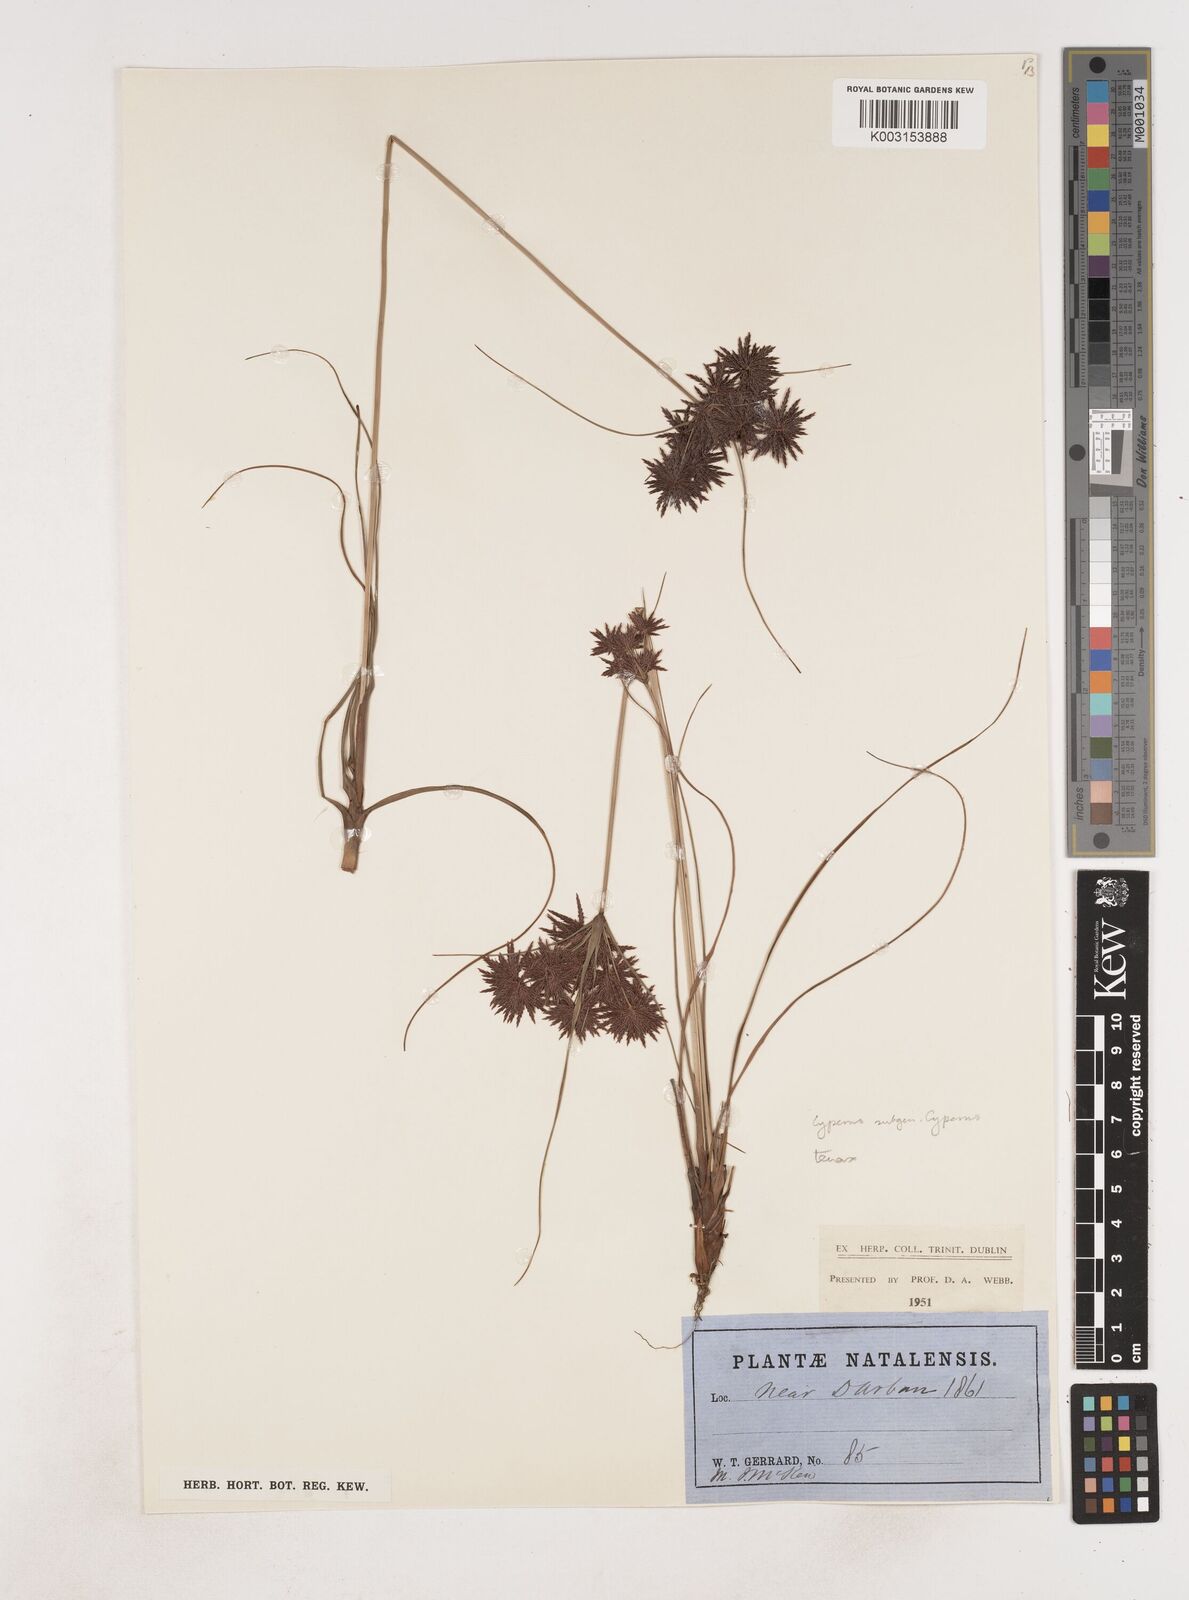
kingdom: Plantae
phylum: Tracheophyta
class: Liliopsida
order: Poales
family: Cyperaceae
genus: Cyperus
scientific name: Cyperus
